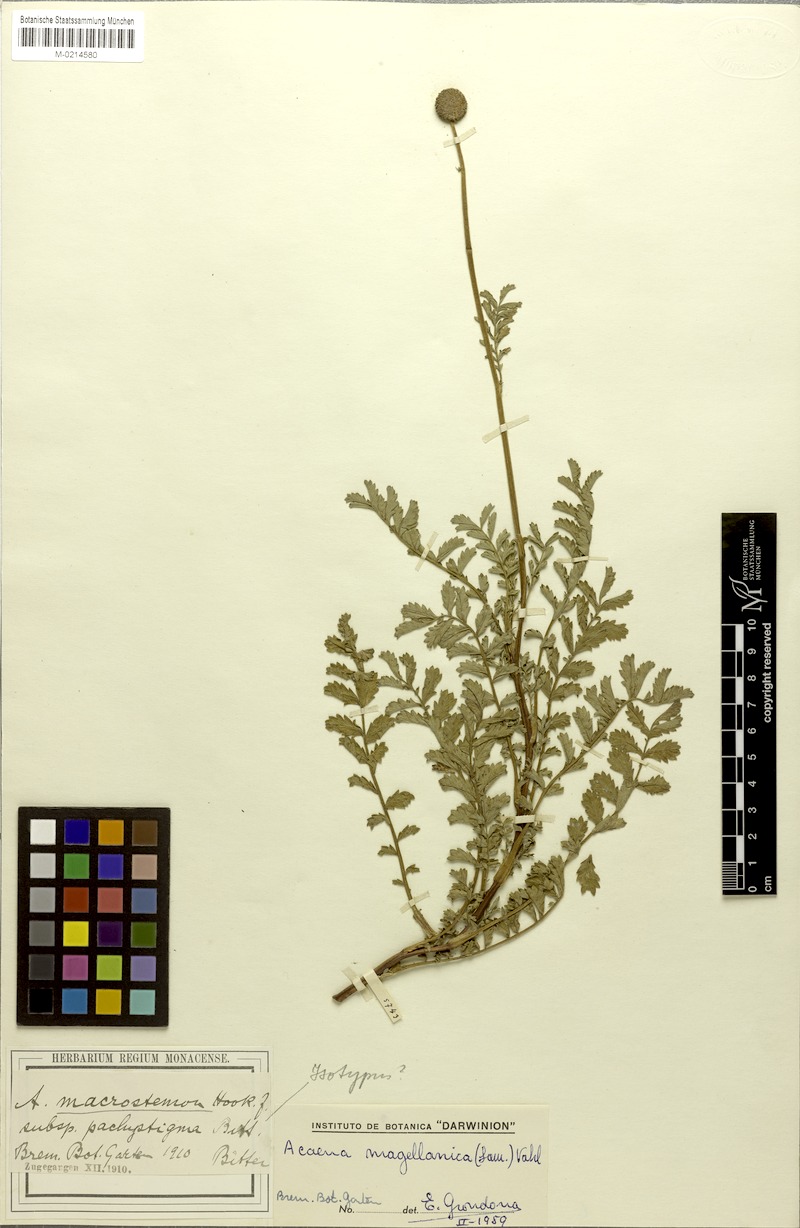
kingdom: Plantae
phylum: Tracheophyta
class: Magnoliopsida
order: Rosales
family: Rosaceae
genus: Acaena
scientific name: Acaena magellanica
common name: New zealand burr
